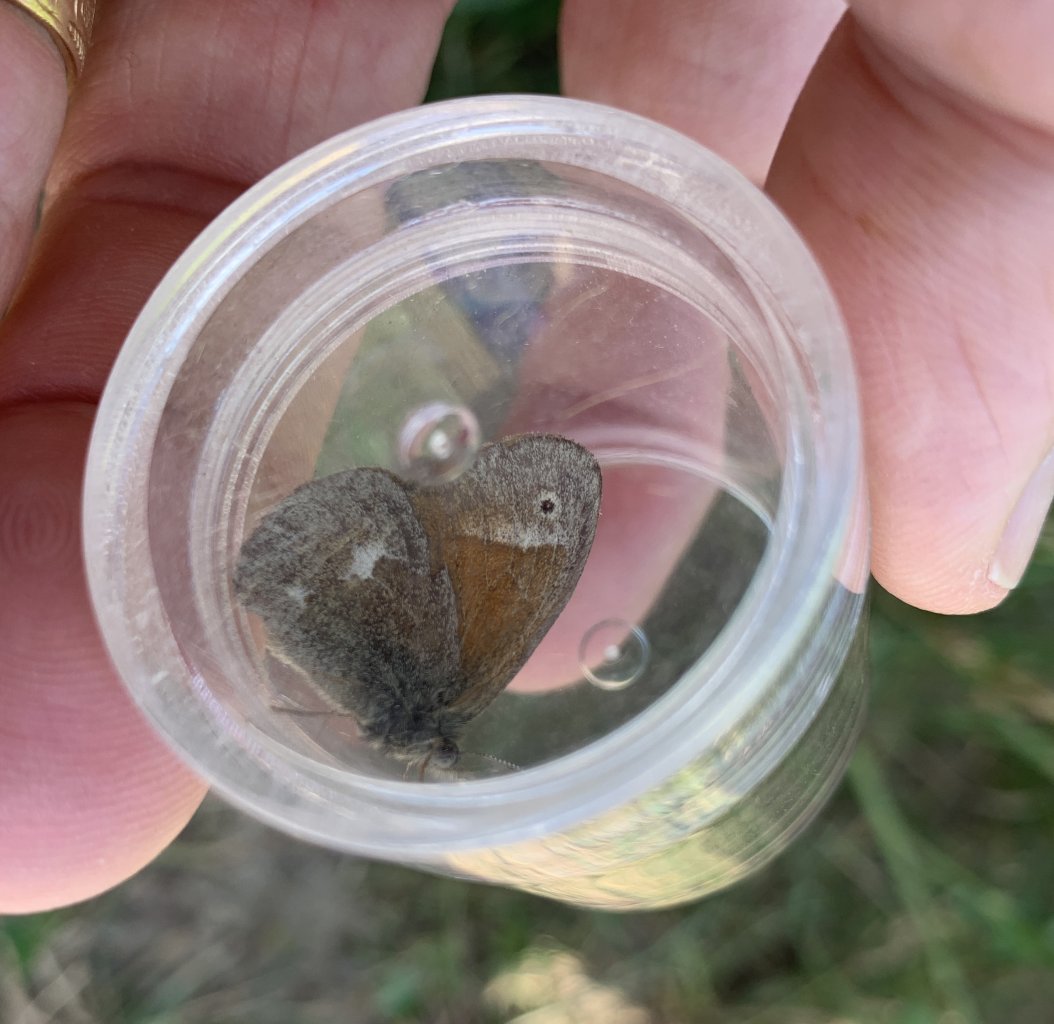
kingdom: Animalia
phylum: Arthropoda
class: Insecta
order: Lepidoptera
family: Nymphalidae
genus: Coenonympha
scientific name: Coenonympha tullia
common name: Large Heath
